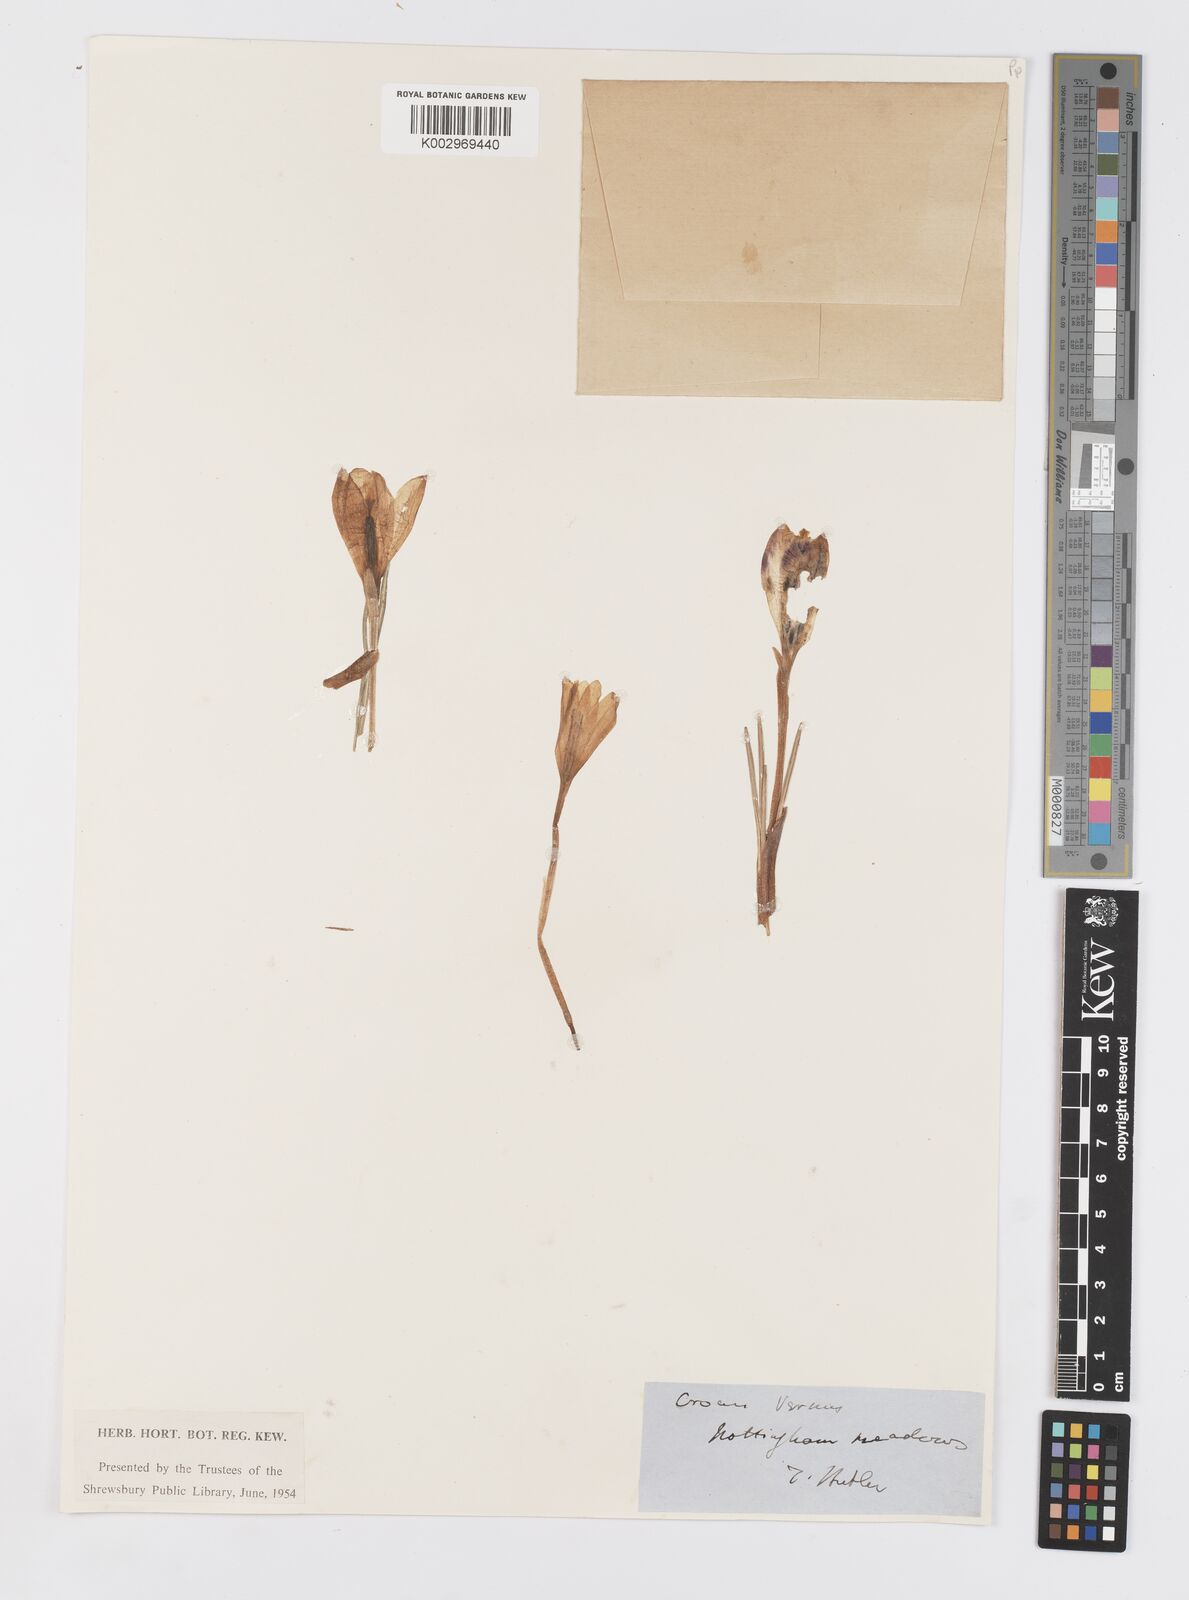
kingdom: Plantae
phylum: Tracheophyta
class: Liliopsida
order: Asparagales
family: Iridaceae
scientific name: Iridaceae
